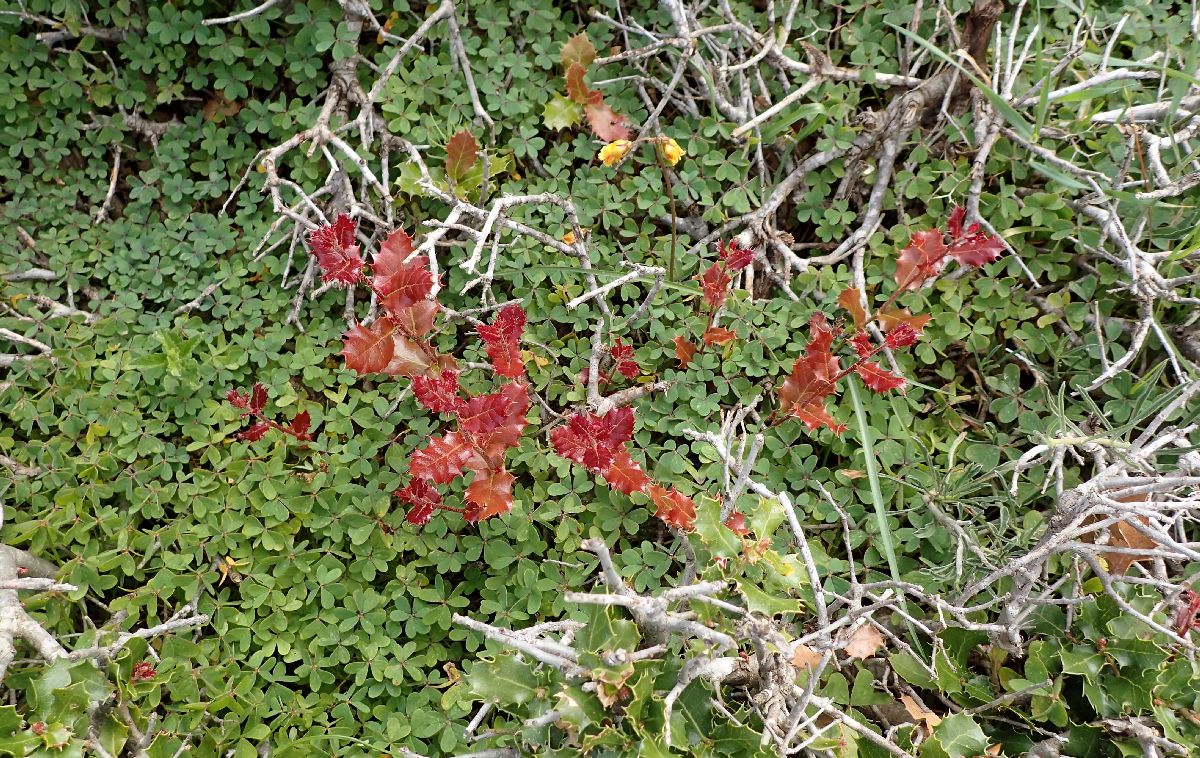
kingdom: Plantae
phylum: Tracheophyta
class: Magnoliopsida
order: Fagales
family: Fagaceae
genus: Quercus
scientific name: Quercus coccifera
